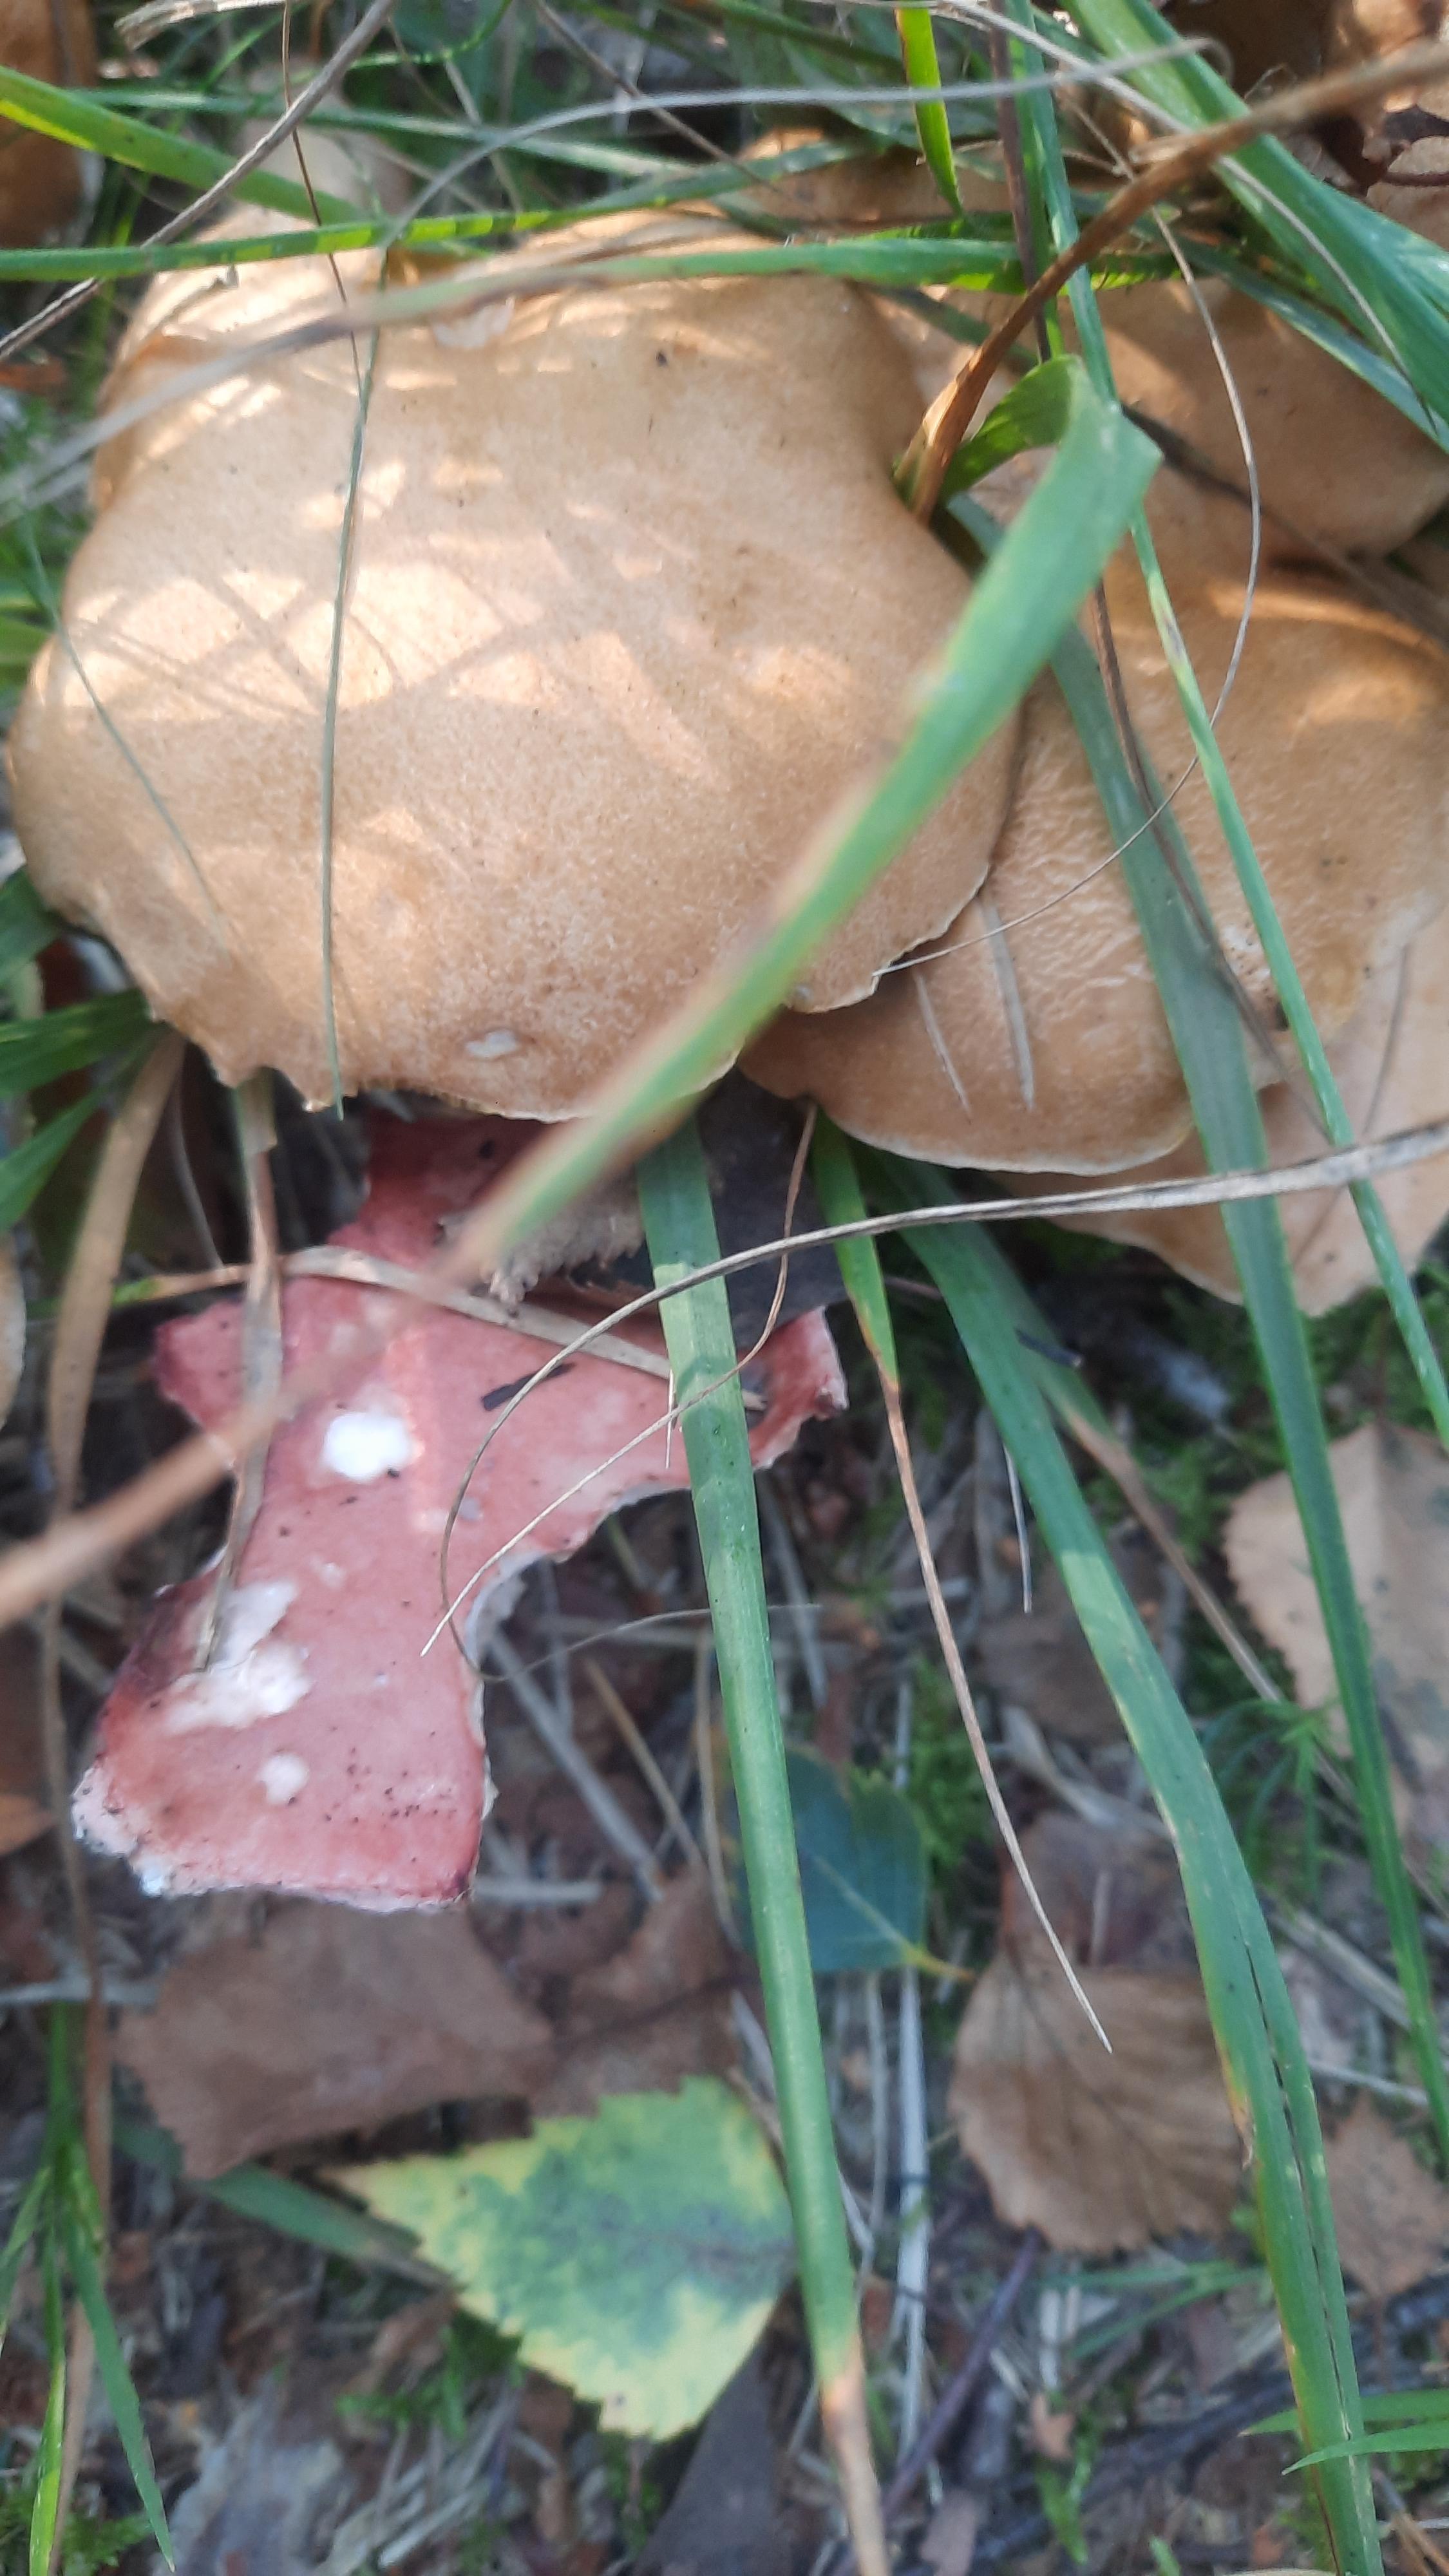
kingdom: Fungi
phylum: Basidiomycota
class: Agaricomycetes
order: Boletales
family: Gomphidiaceae
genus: Gomphidius
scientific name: Gomphidius roseus
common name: rosenrød slimslør
